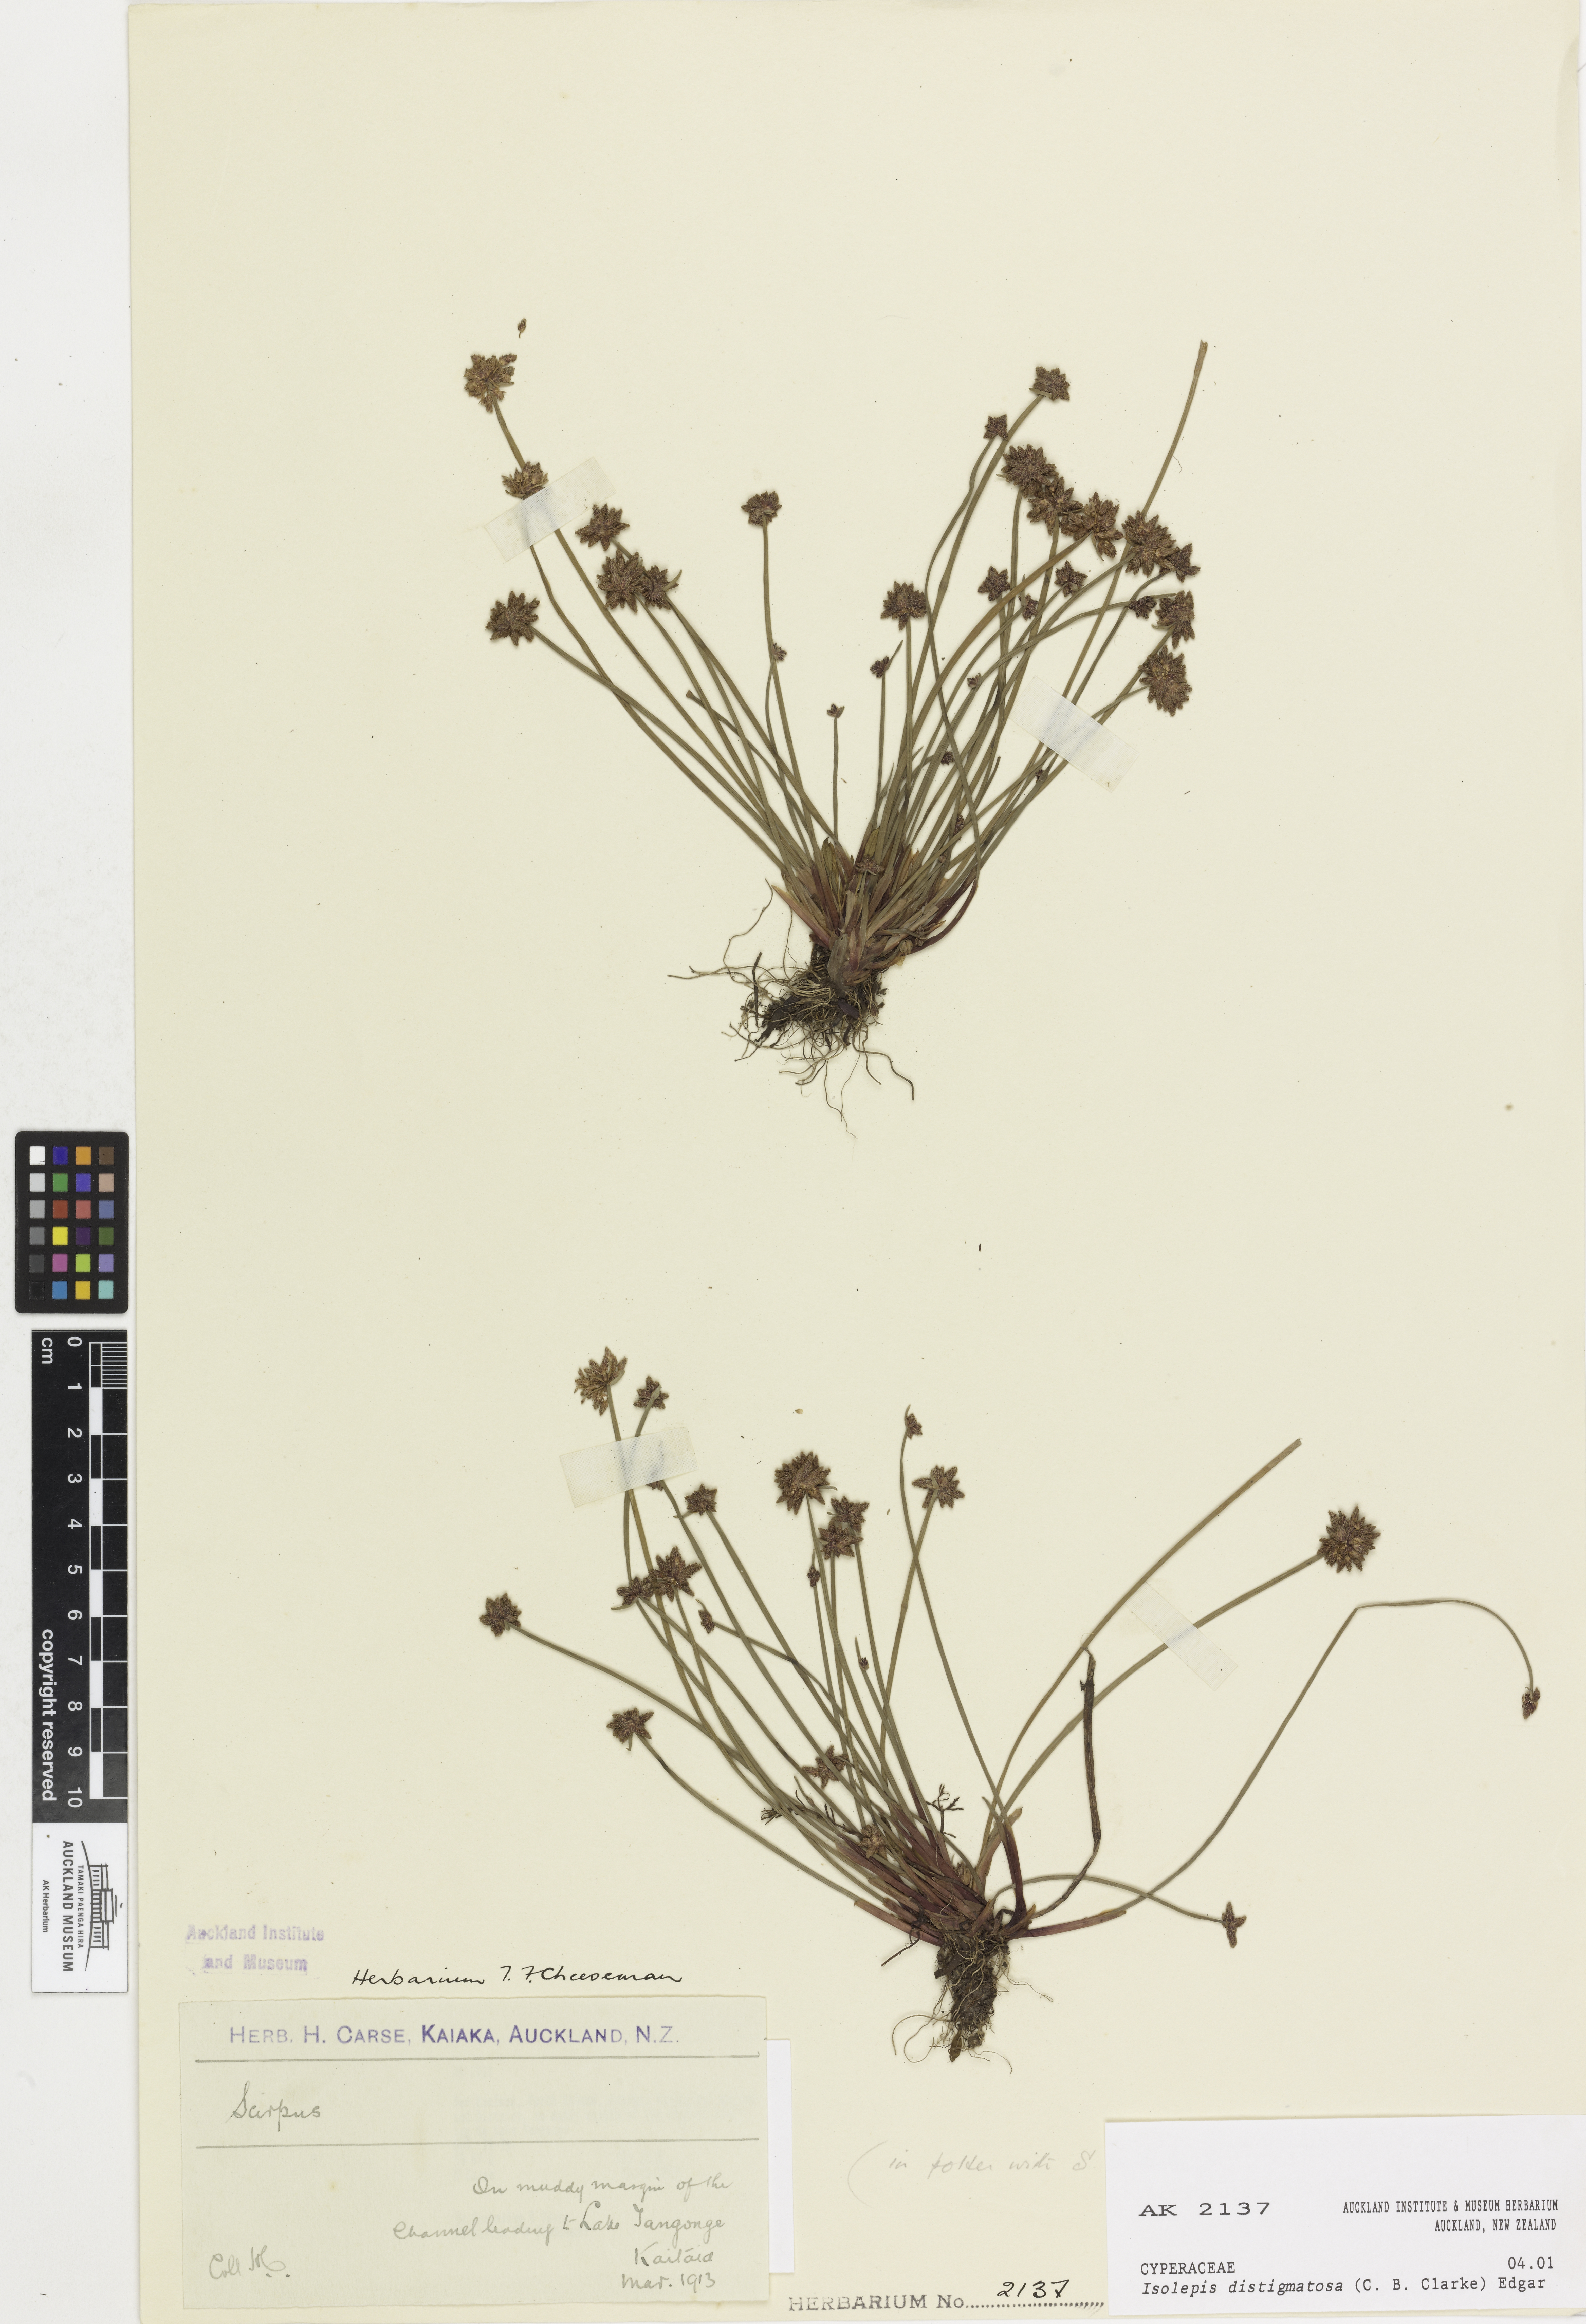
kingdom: Plantae
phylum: Tracheophyta
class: Liliopsida
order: Poales
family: Cyperaceae
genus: Isolepis
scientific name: Isolepis distigmatosa
